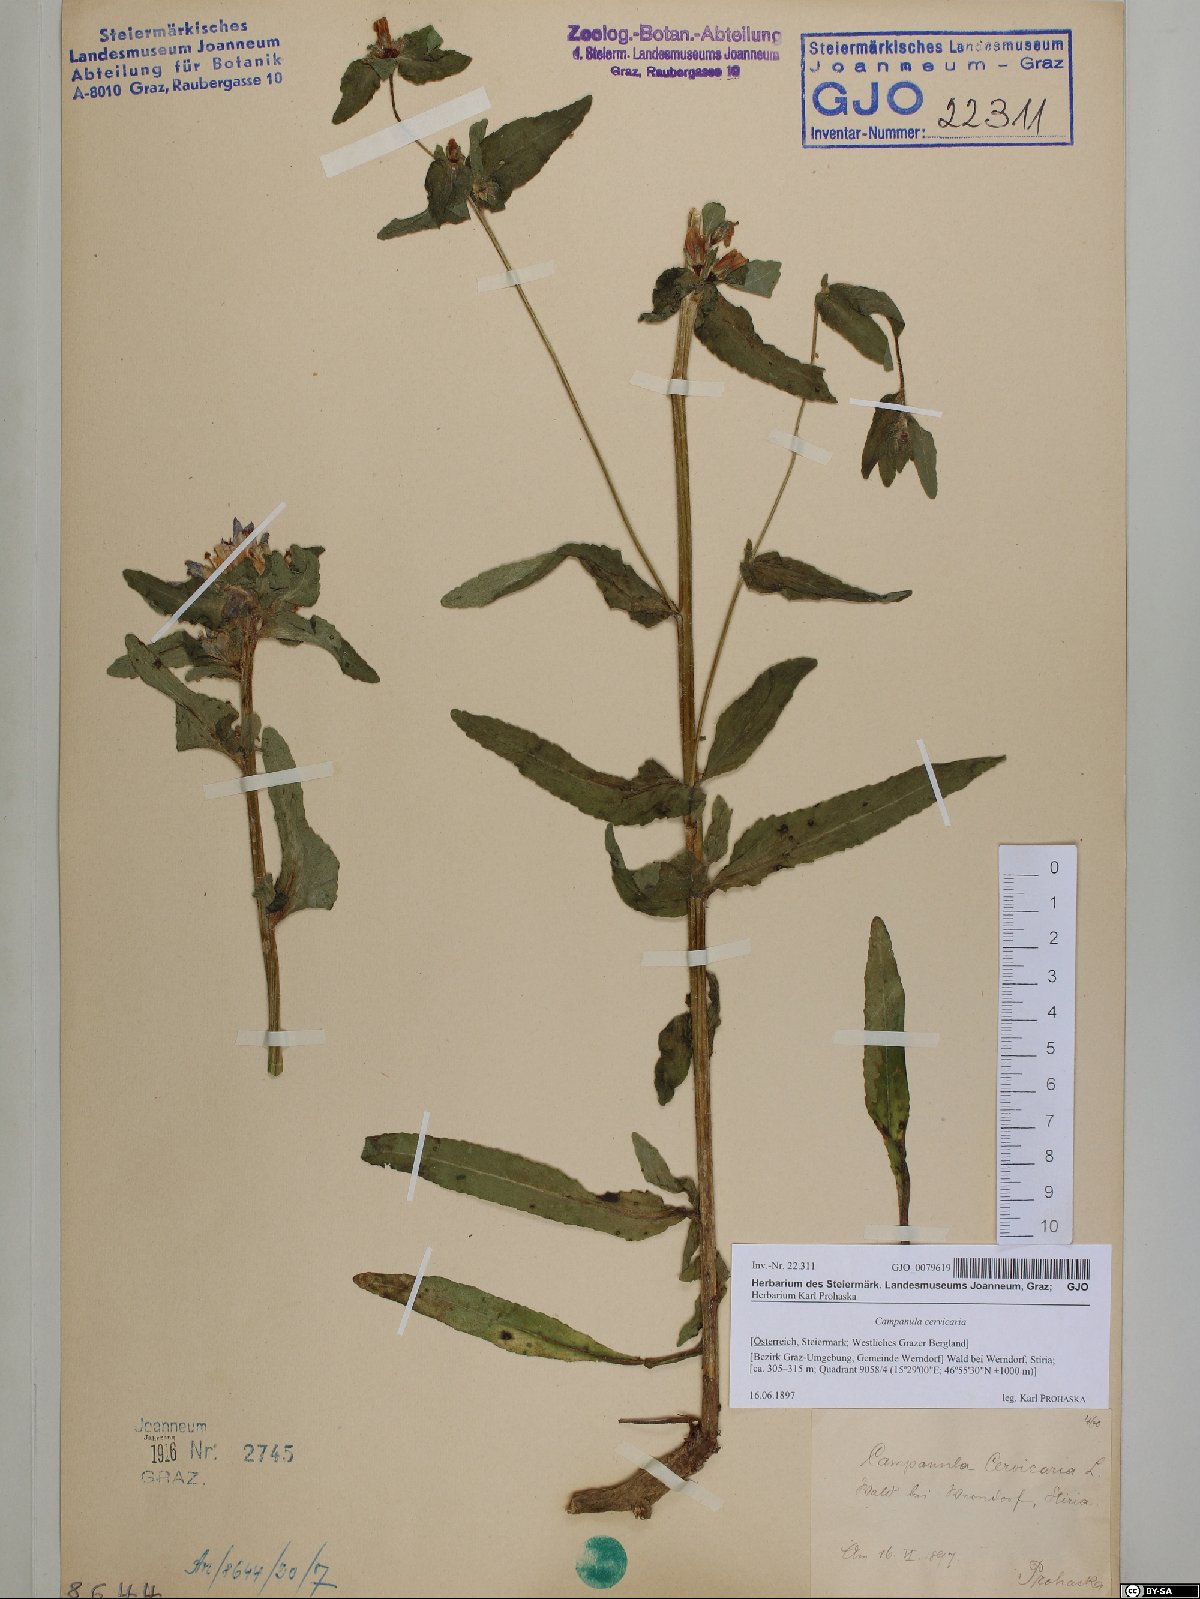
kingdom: Plantae
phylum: Tracheophyta
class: Magnoliopsida
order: Asterales
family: Campanulaceae
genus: Campanula
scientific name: Campanula cervicaria
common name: Bristly bellflower
